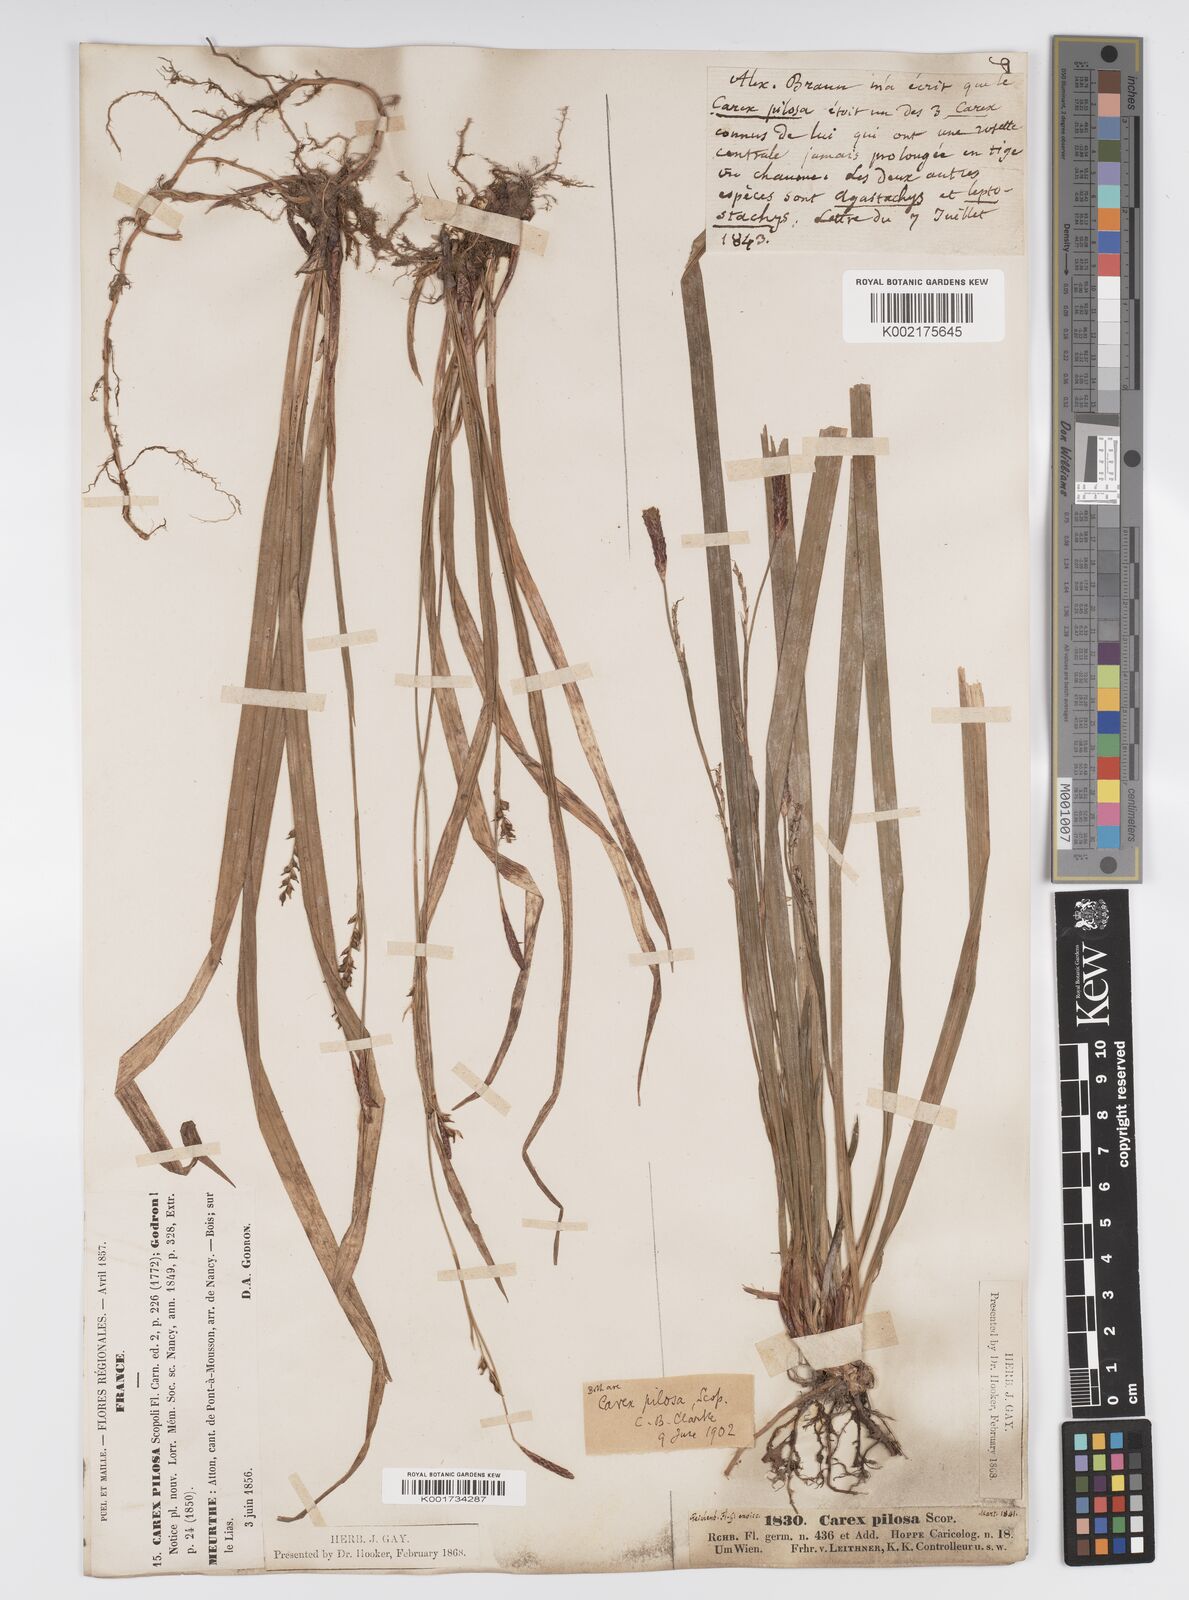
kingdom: Plantae
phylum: Tracheophyta
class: Liliopsida
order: Poales
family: Cyperaceae
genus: Carex
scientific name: Carex pilosa
